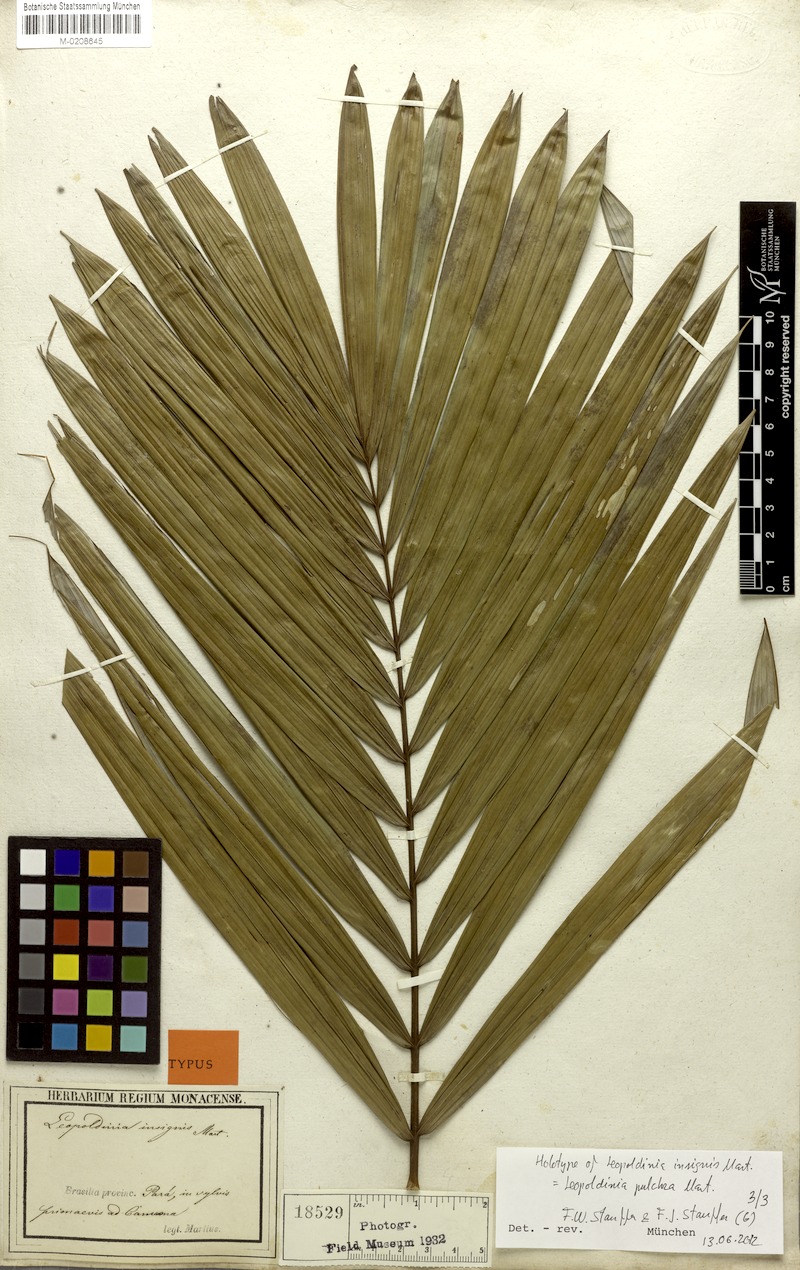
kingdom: Plantae
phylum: Tracheophyta
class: Liliopsida
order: Arecales
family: Arecaceae
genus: Leopoldinia
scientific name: Leopoldinia pulchra
